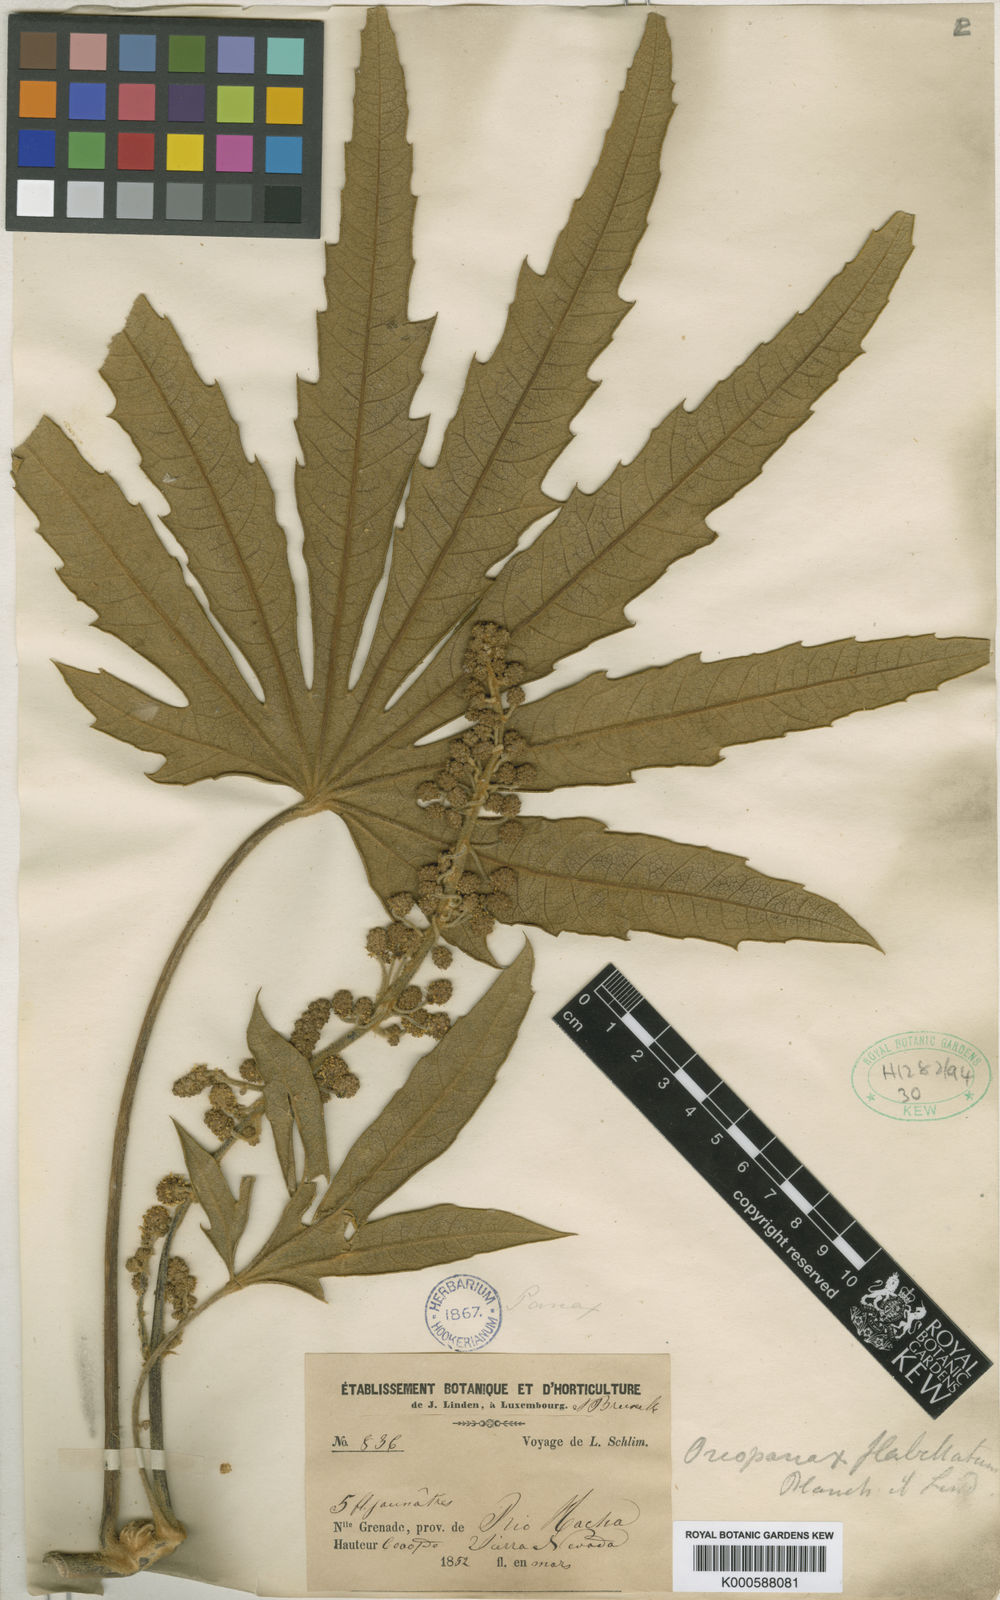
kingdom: Plantae
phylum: Tracheophyta
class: Magnoliopsida
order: Apiales
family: Araliaceae
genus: Oreopanax
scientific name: Oreopanax
